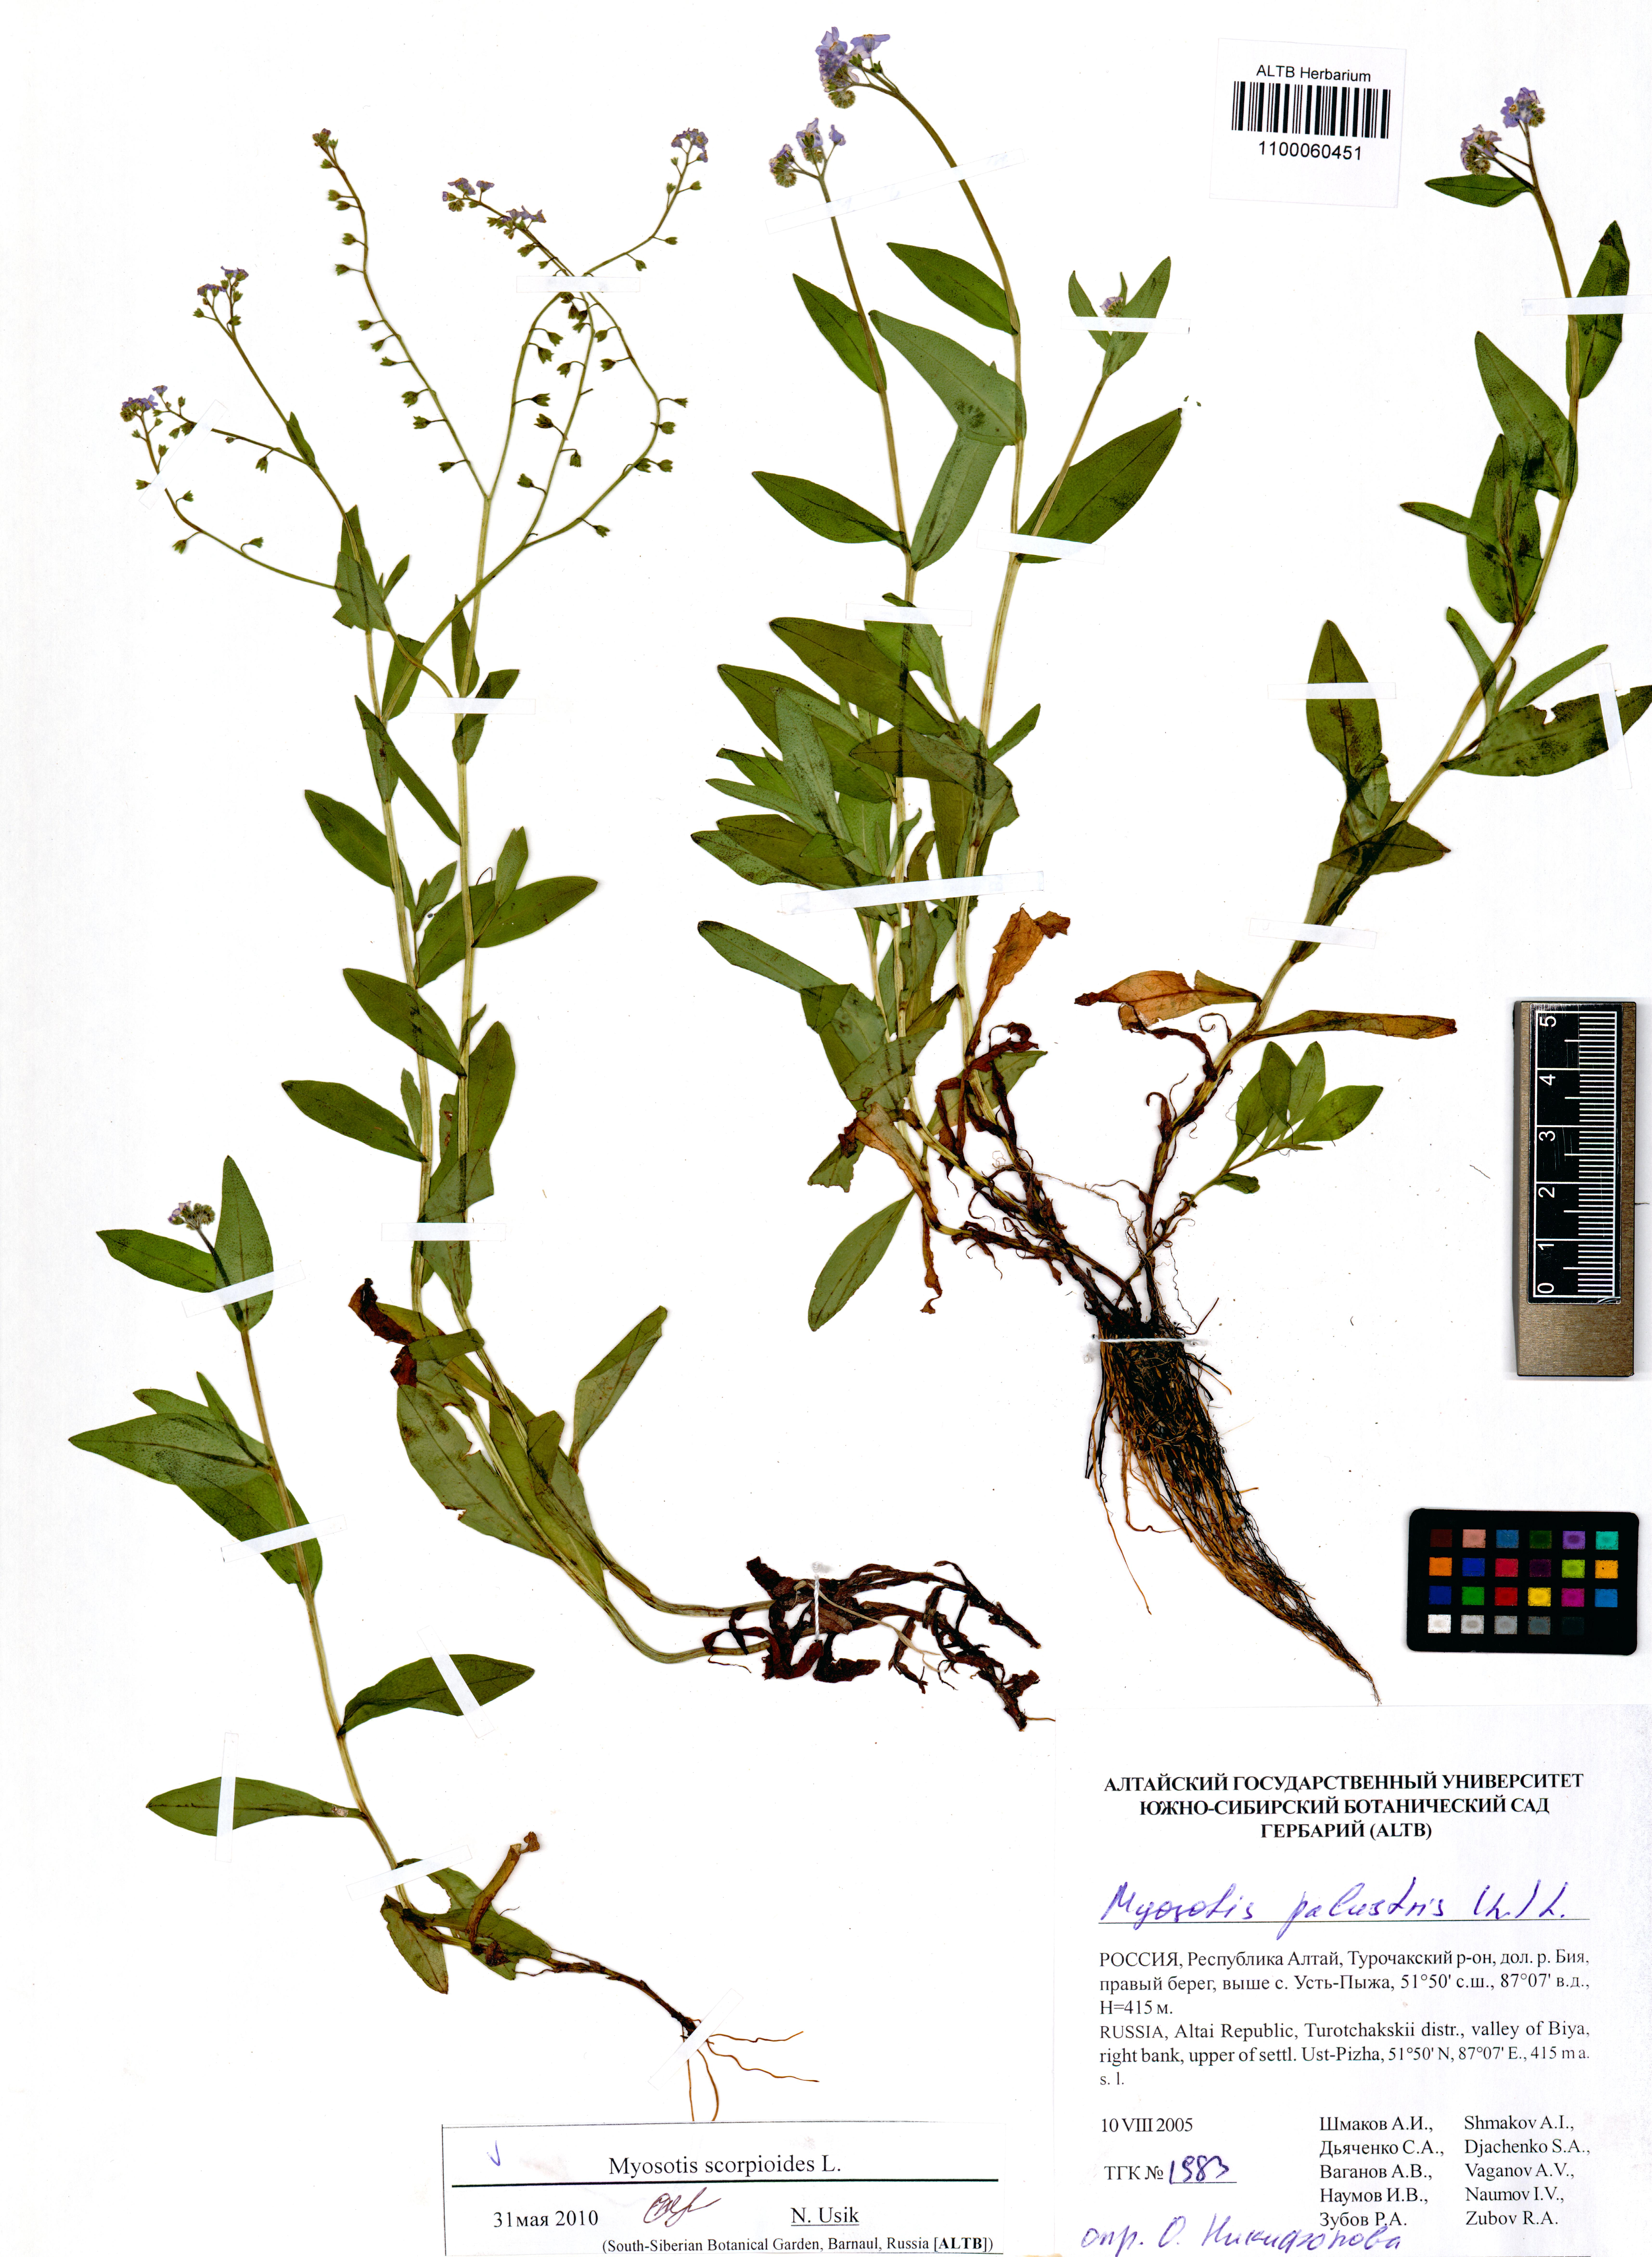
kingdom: Plantae
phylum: Tracheophyta
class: Magnoliopsida
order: Boraginales
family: Boraginaceae
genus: Myosotis
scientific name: Myosotis scorpioides
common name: Water forget-me-not
